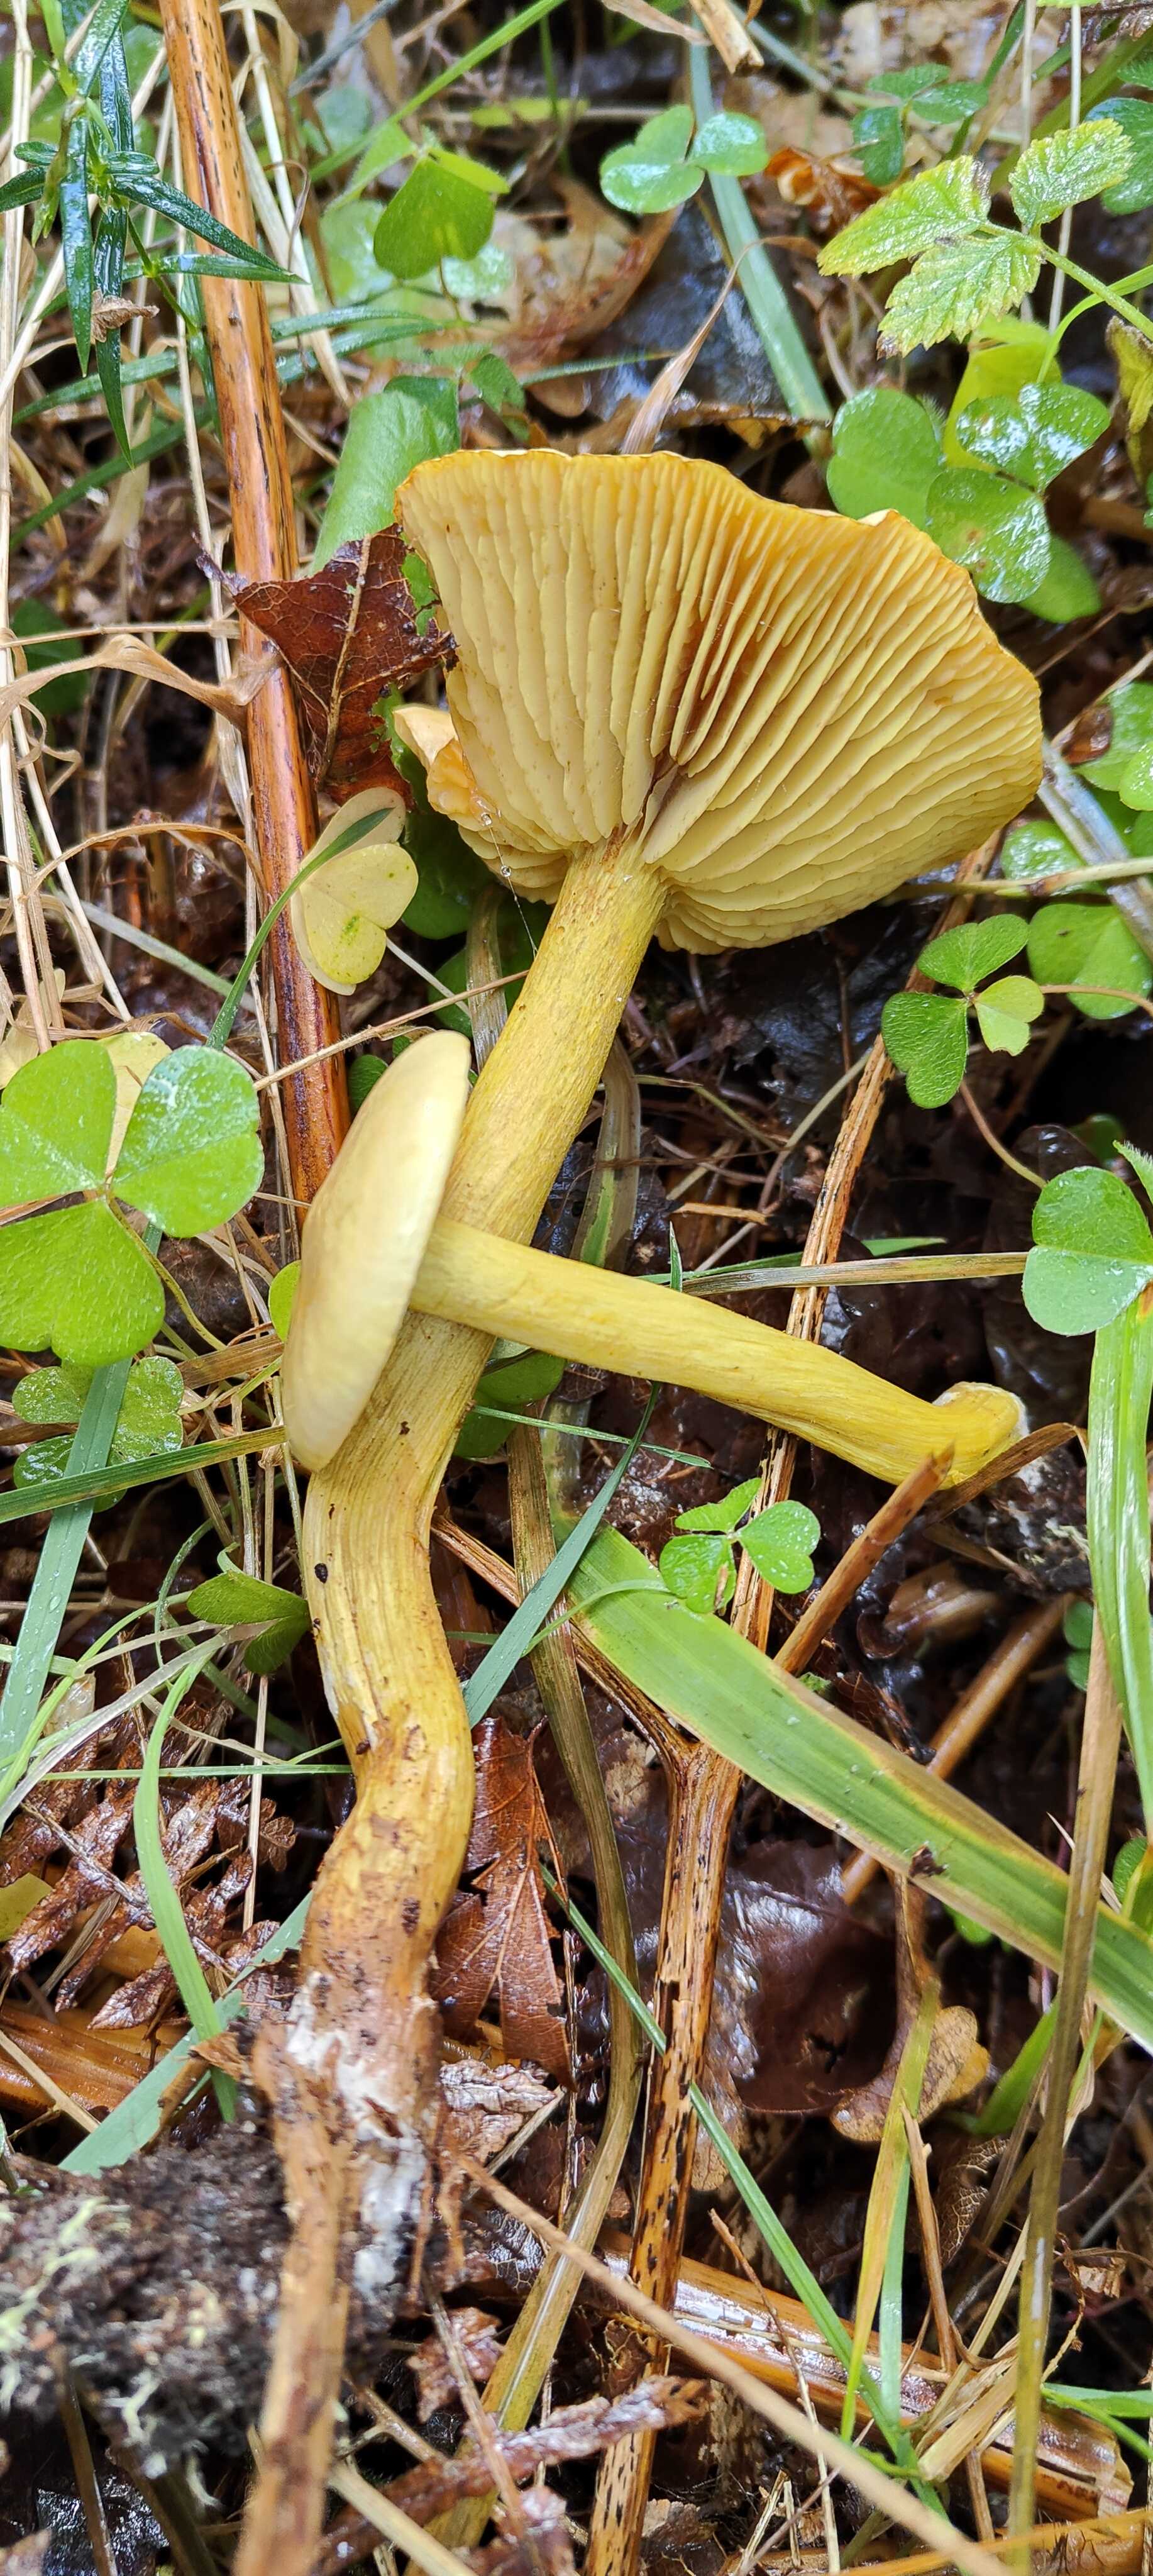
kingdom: Fungi
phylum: Basidiomycota
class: Agaricomycetes
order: Agaricales
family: Tricholomataceae
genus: Tricholoma
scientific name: Tricholoma sulphureum
